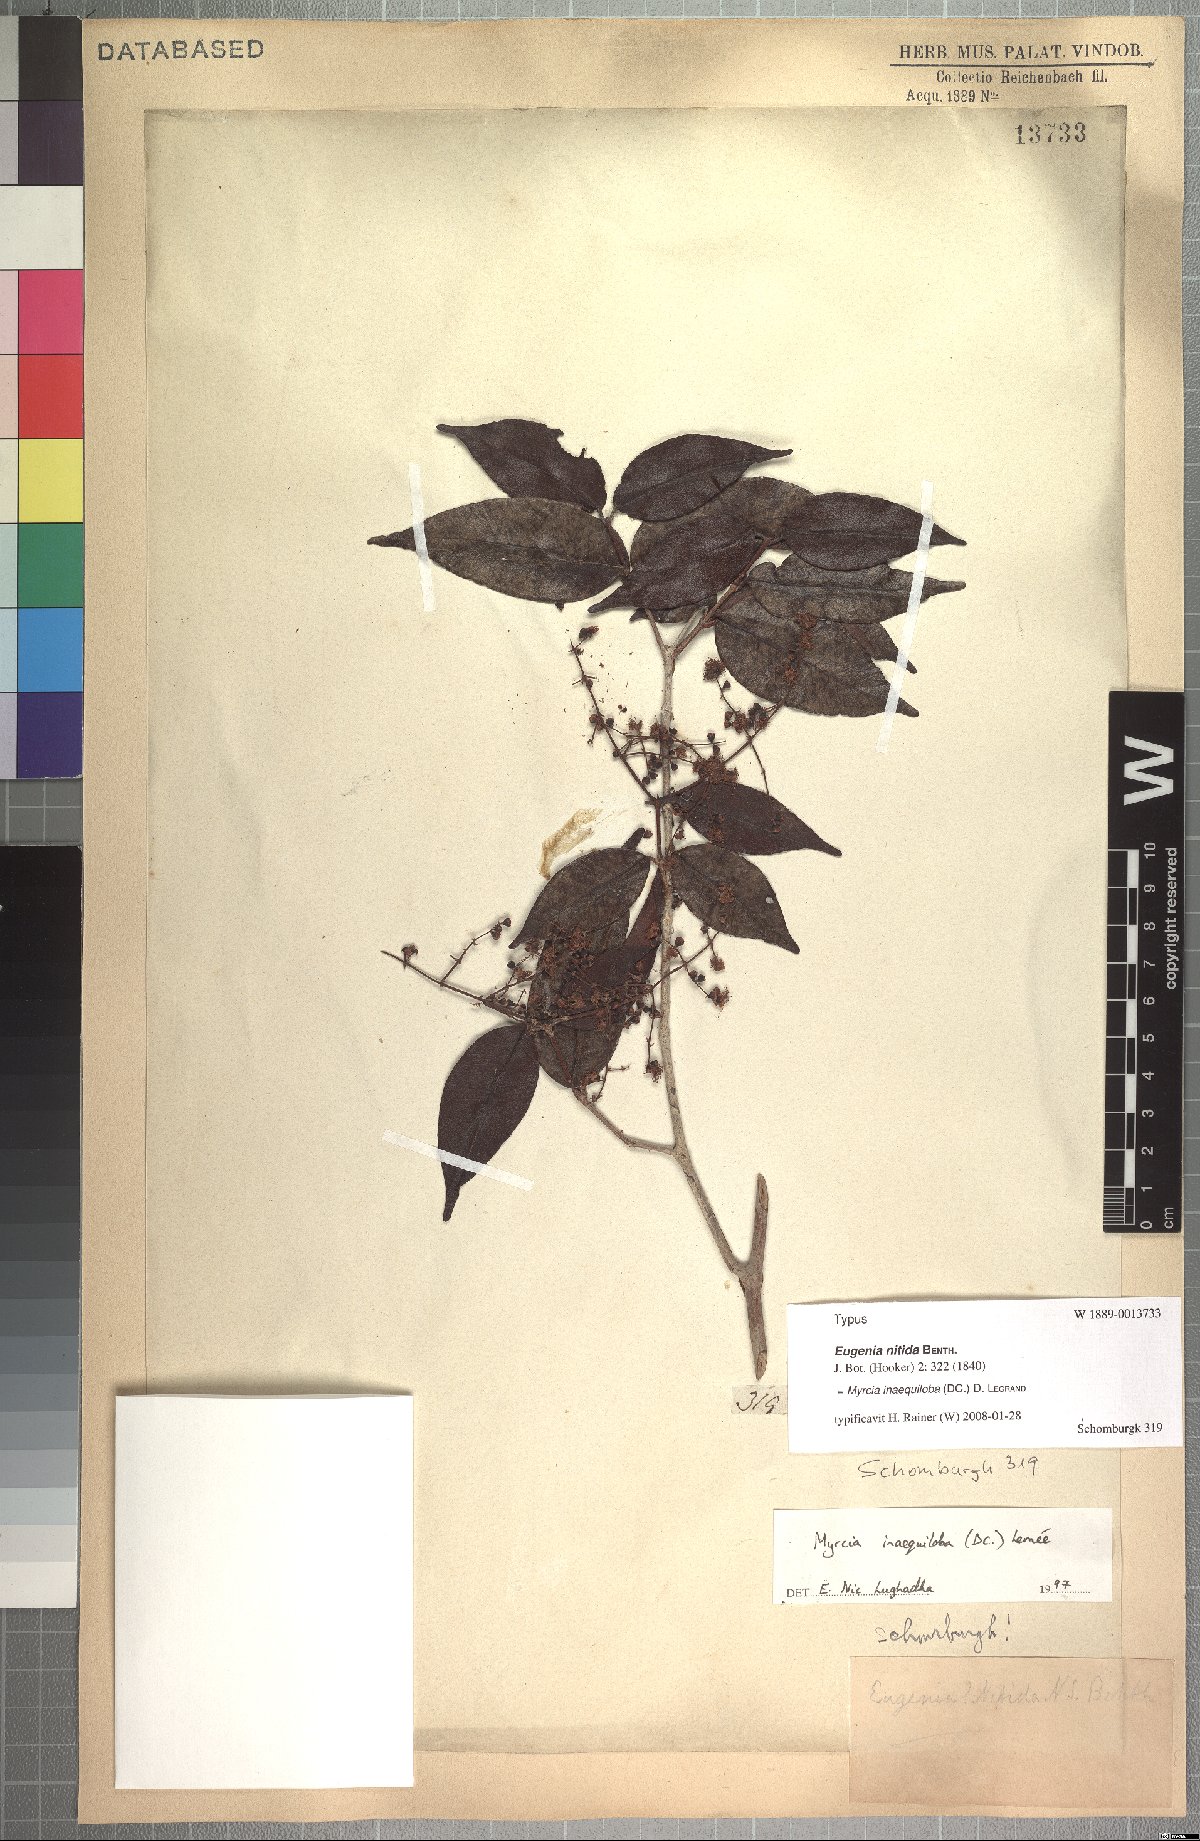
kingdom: Plantae
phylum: Tracheophyta
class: Magnoliopsida
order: Myrtales
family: Myrtaceae
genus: Myrcia
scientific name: Myrcia inaequiloba
